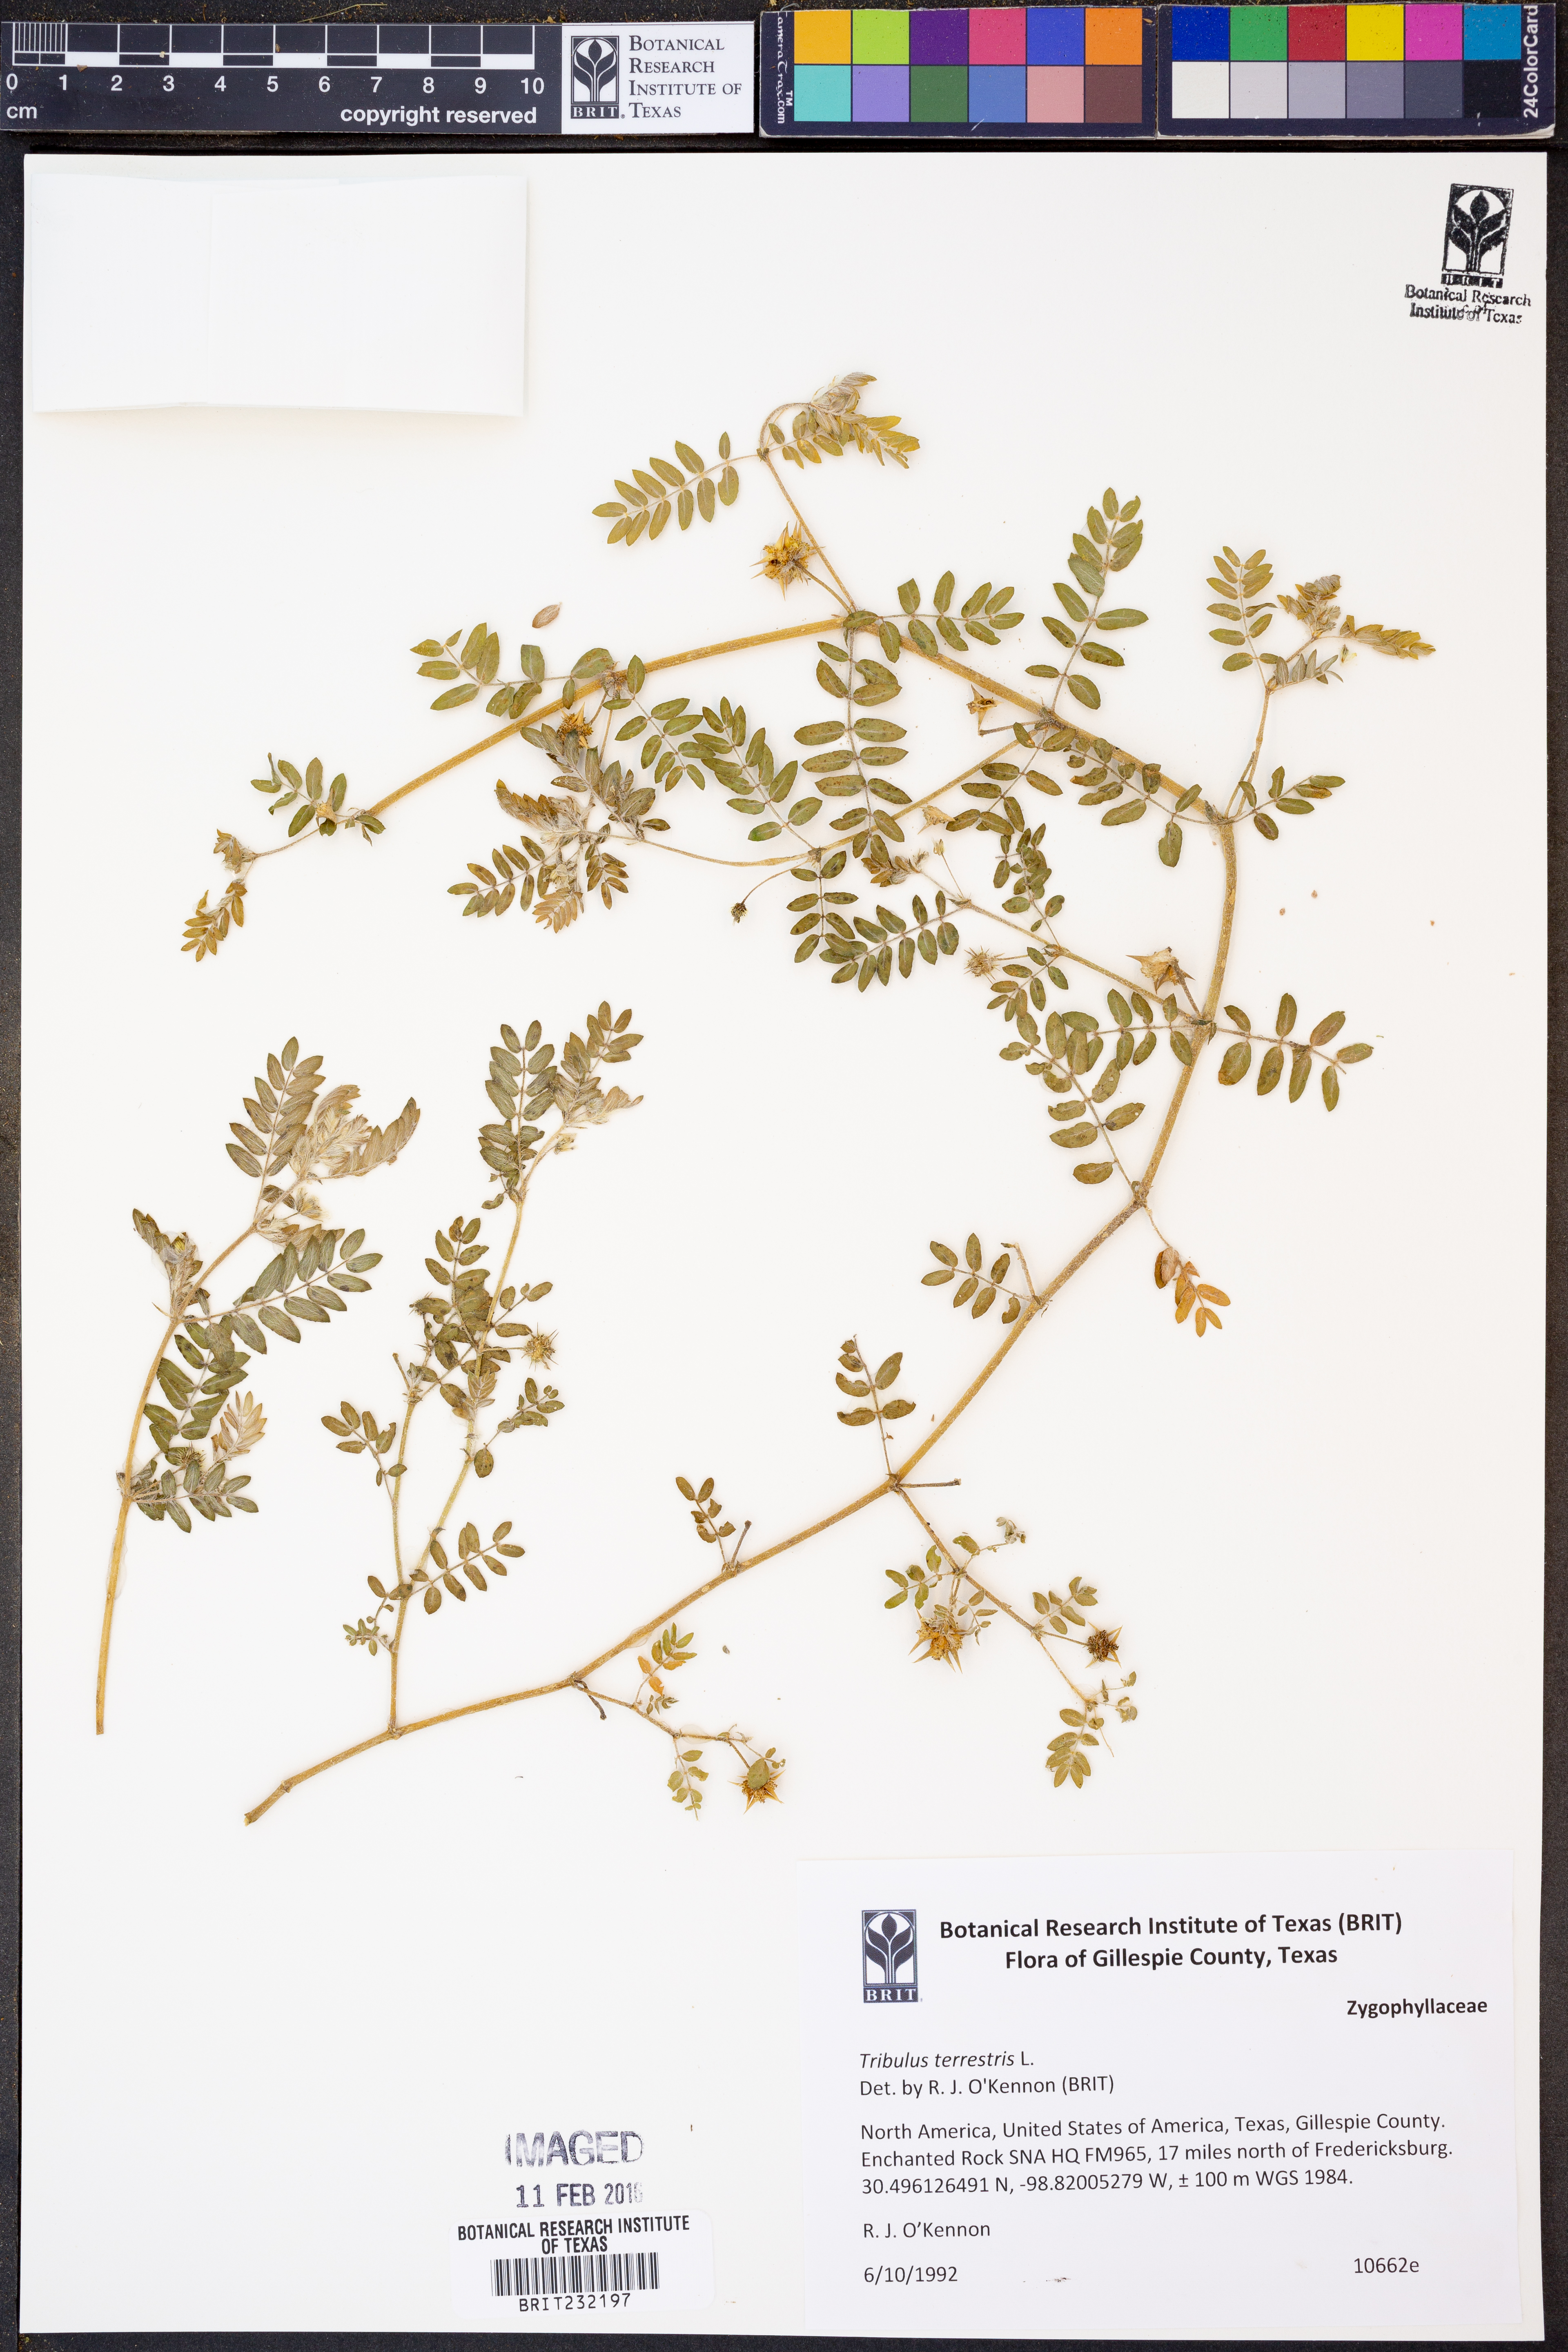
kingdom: Plantae
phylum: Tracheophyta
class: Magnoliopsida
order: Zygophyllales
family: Zygophyllaceae
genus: Tribulus
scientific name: Tribulus terrestris
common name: Puncturevine
